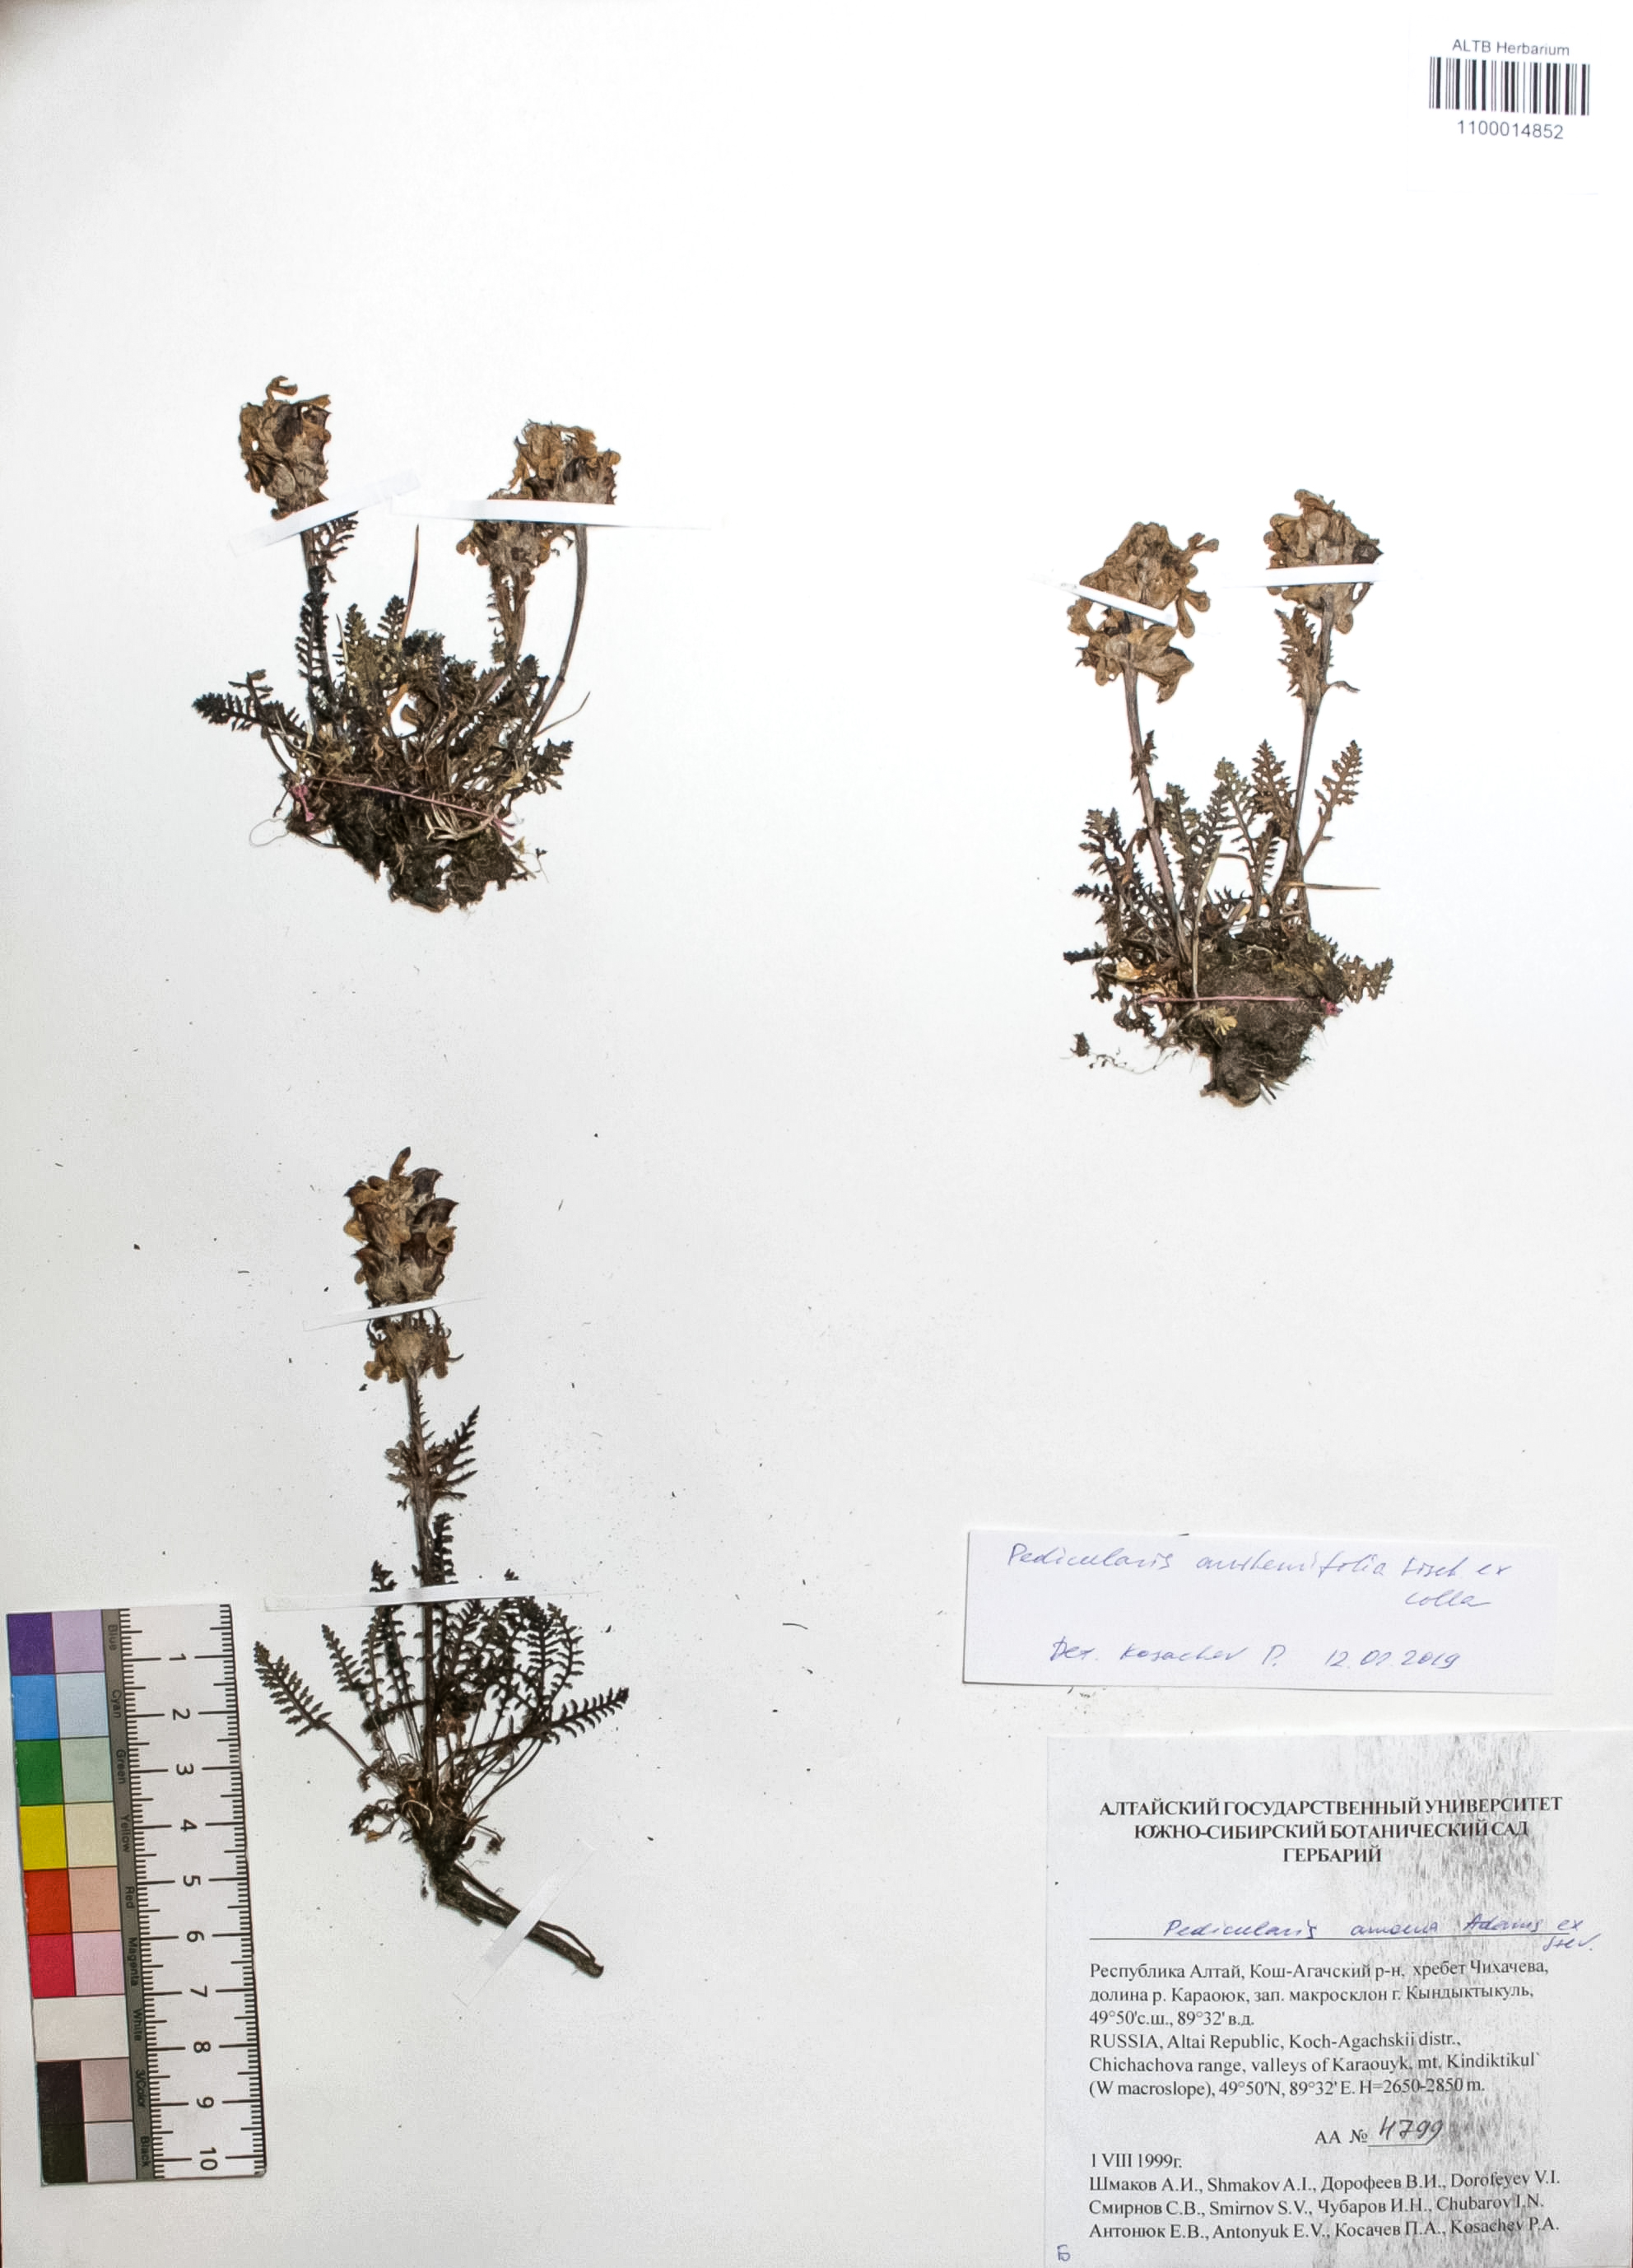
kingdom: Plantae
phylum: Tracheophyta
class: Magnoliopsida
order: Lamiales
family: Orobanchaceae
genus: Pedicularis
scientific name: Pedicularis amoena
